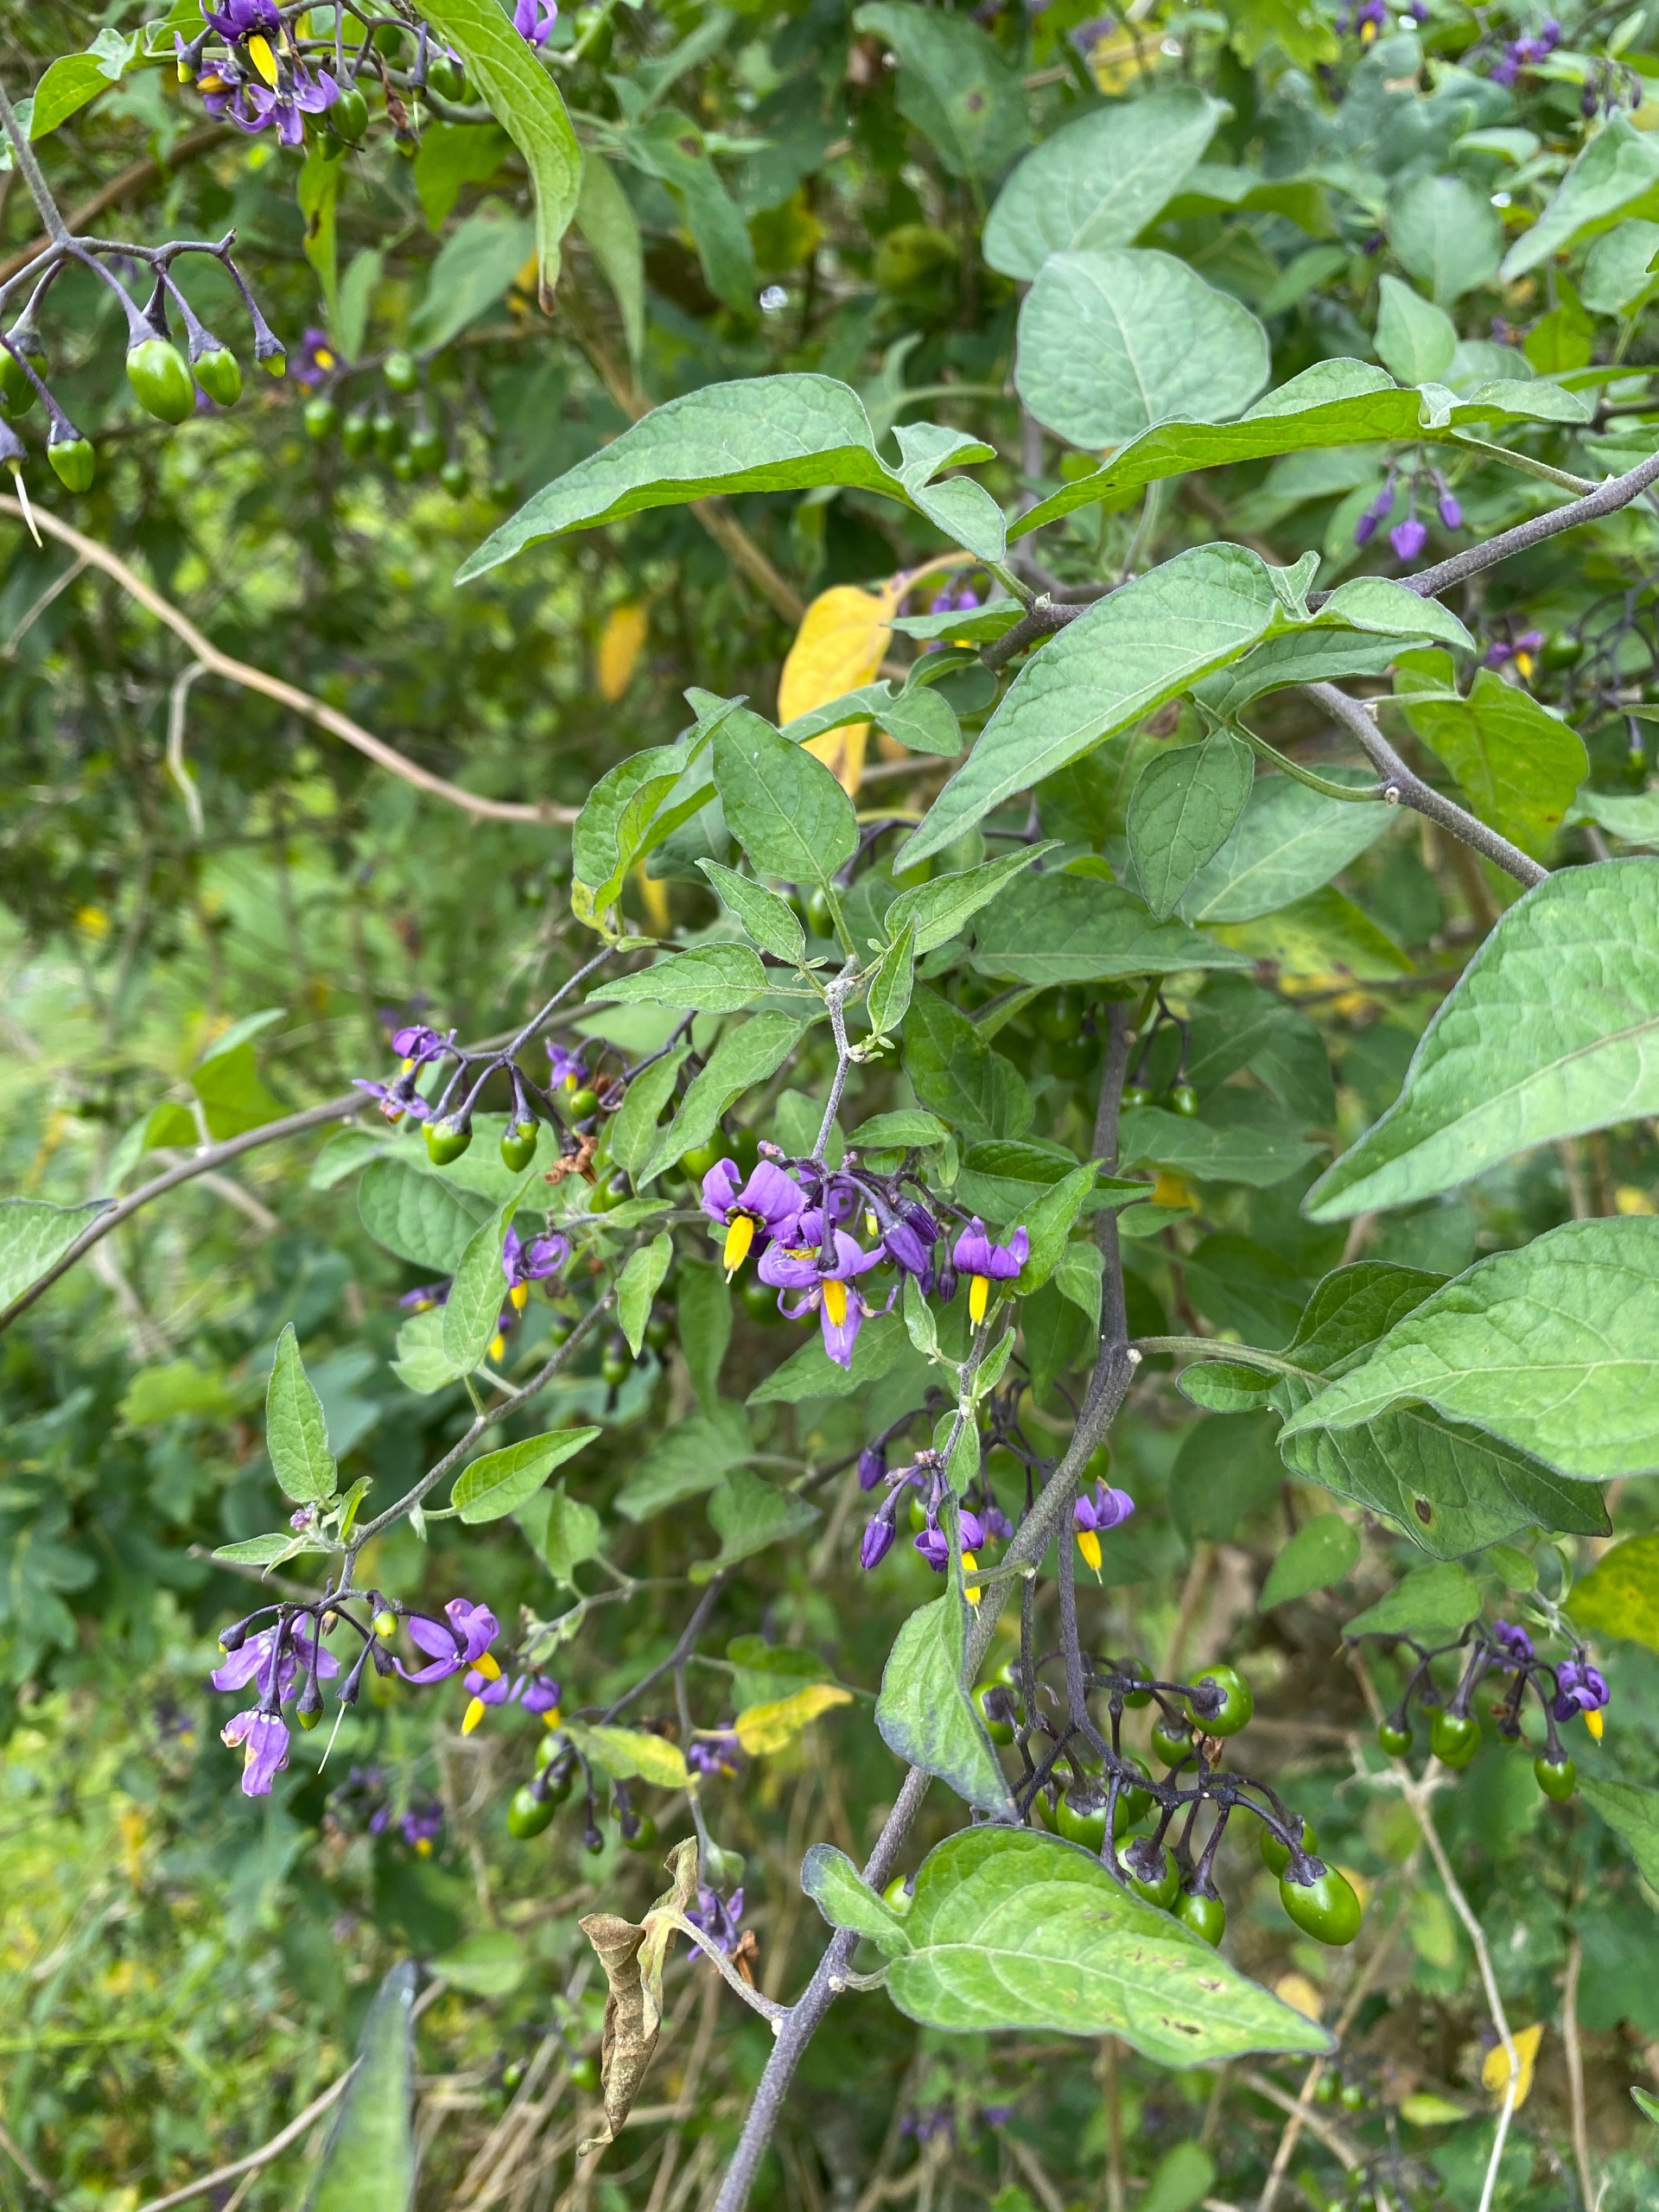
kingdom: Plantae
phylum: Tracheophyta
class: Magnoliopsida
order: Solanales
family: Solanaceae
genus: Solanum
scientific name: Solanum dulcamara
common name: Bittersød natskygge
